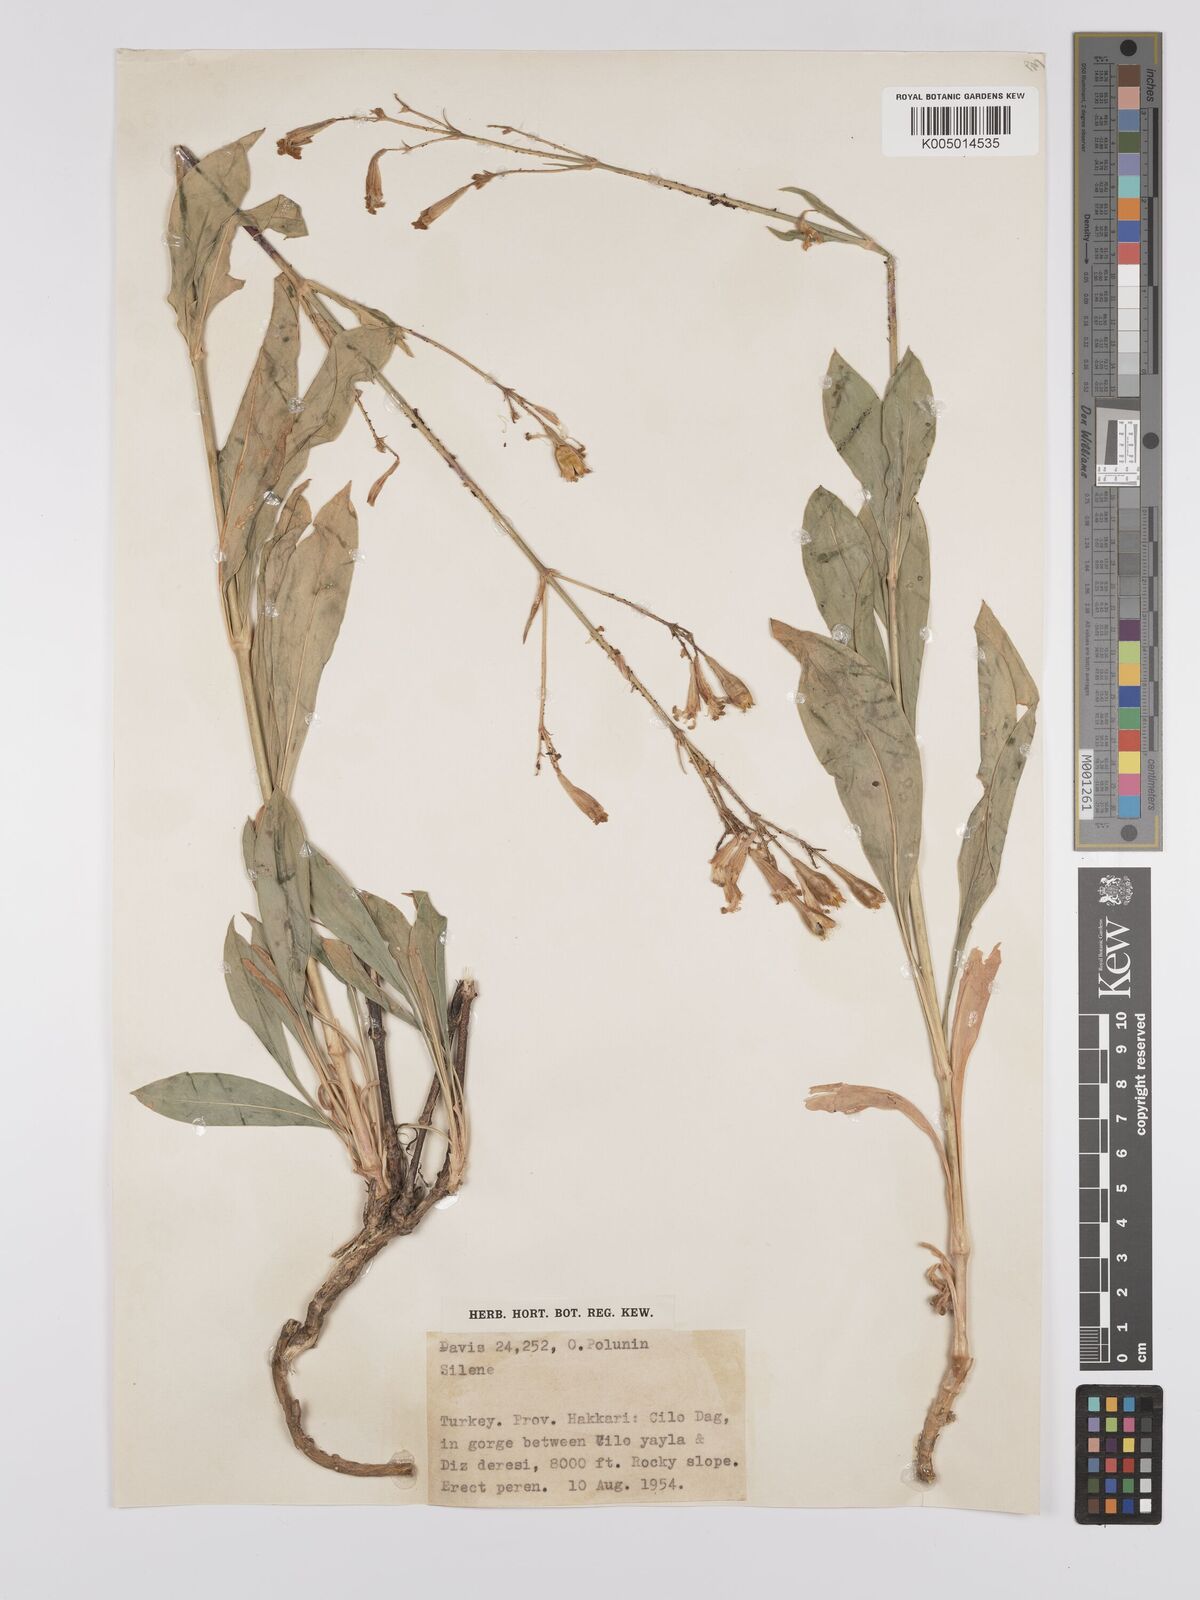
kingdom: Plantae
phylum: Tracheophyta
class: Magnoliopsida
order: Caryophyllales
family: Caryophyllaceae
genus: Silene
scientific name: Silene
